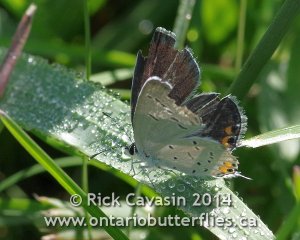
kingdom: Animalia
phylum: Arthropoda
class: Insecta
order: Lepidoptera
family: Lycaenidae
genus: Elkalyce
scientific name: Elkalyce comyntas
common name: Eastern Tailed-Blue
